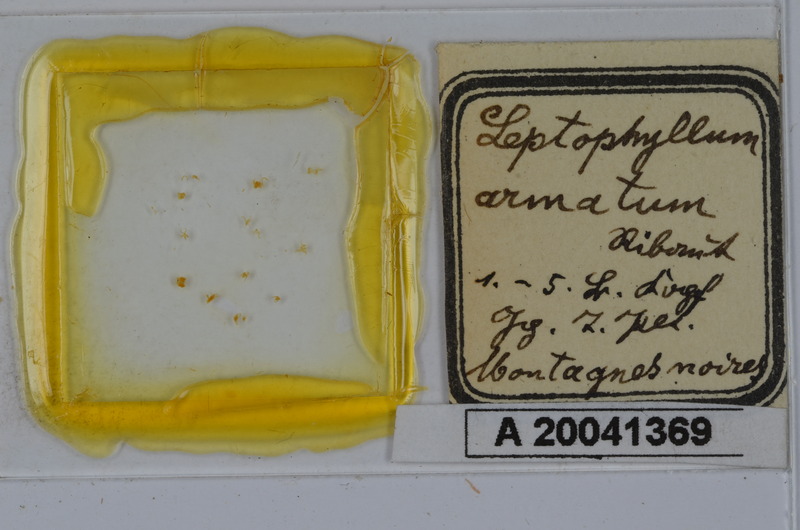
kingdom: Animalia
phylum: Arthropoda
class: Diplopoda
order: Julida
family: Julidae
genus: Enantiulus
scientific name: Enantiulus armatus
